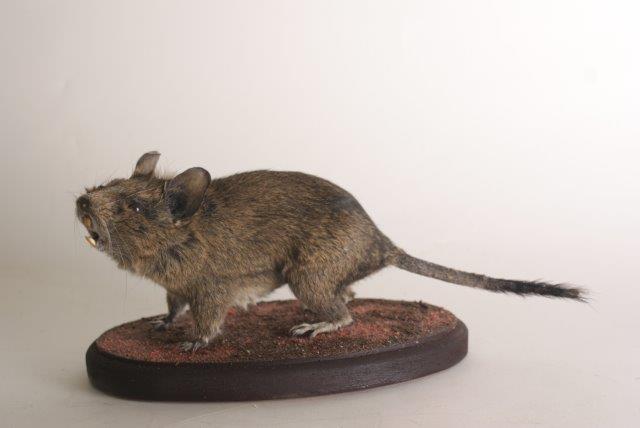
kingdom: Animalia
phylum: Chordata
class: Mammalia
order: Rodentia
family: Octodontidae
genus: Octodon
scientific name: Octodon degus
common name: Degu
